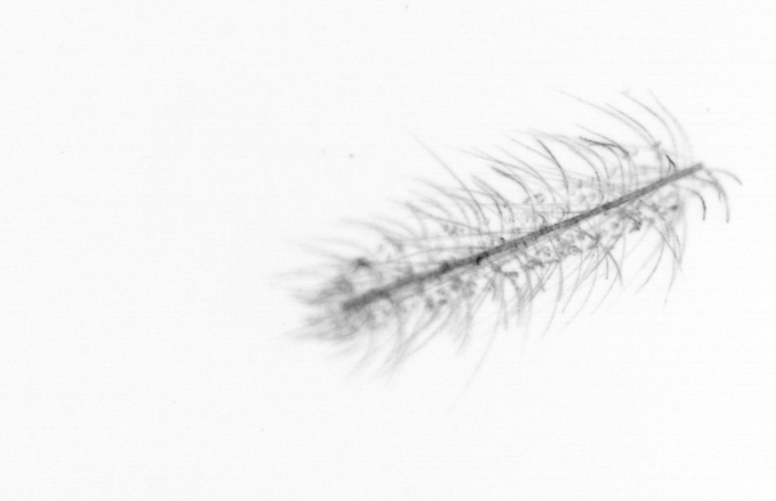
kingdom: Chromista
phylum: Ochrophyta
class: Bacillariophyceae
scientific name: Bacillariophyceae
